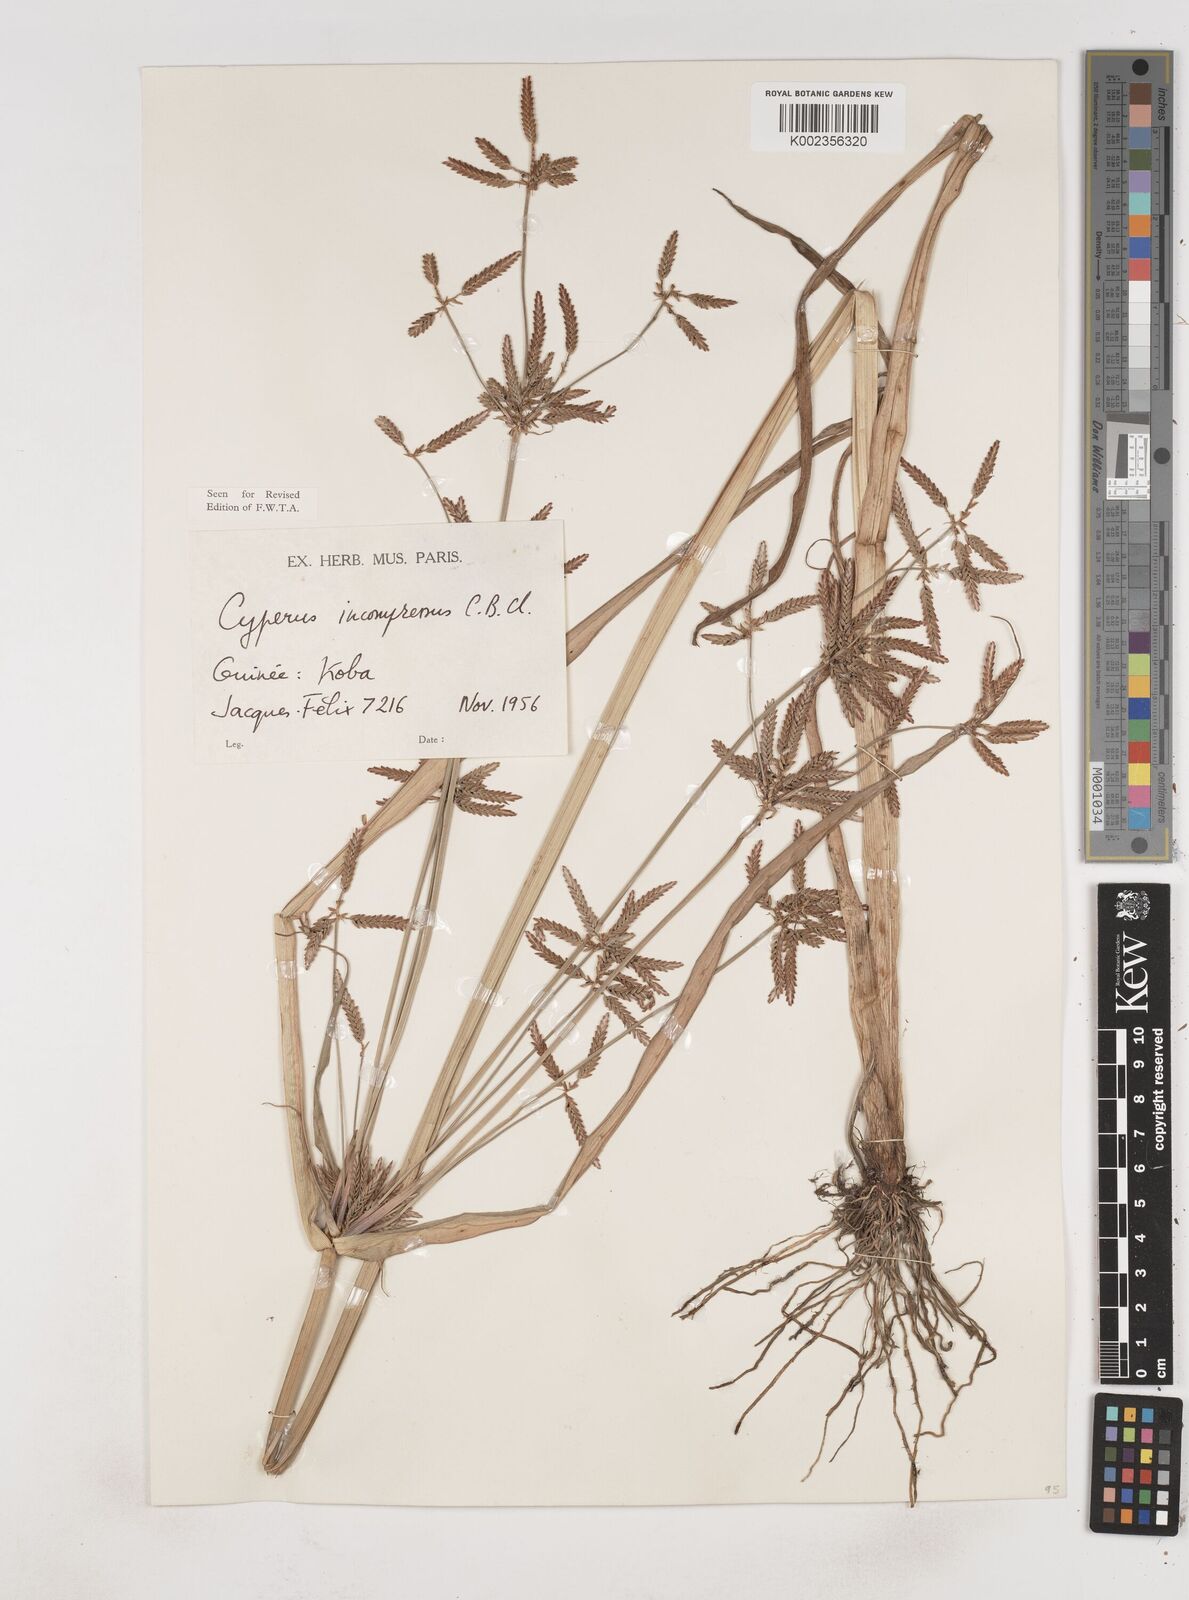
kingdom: Plantae
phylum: Tracheophyta
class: Liliopsida
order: Poales
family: Cyperaceae
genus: Cyperus
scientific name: Cyperus incompressus
